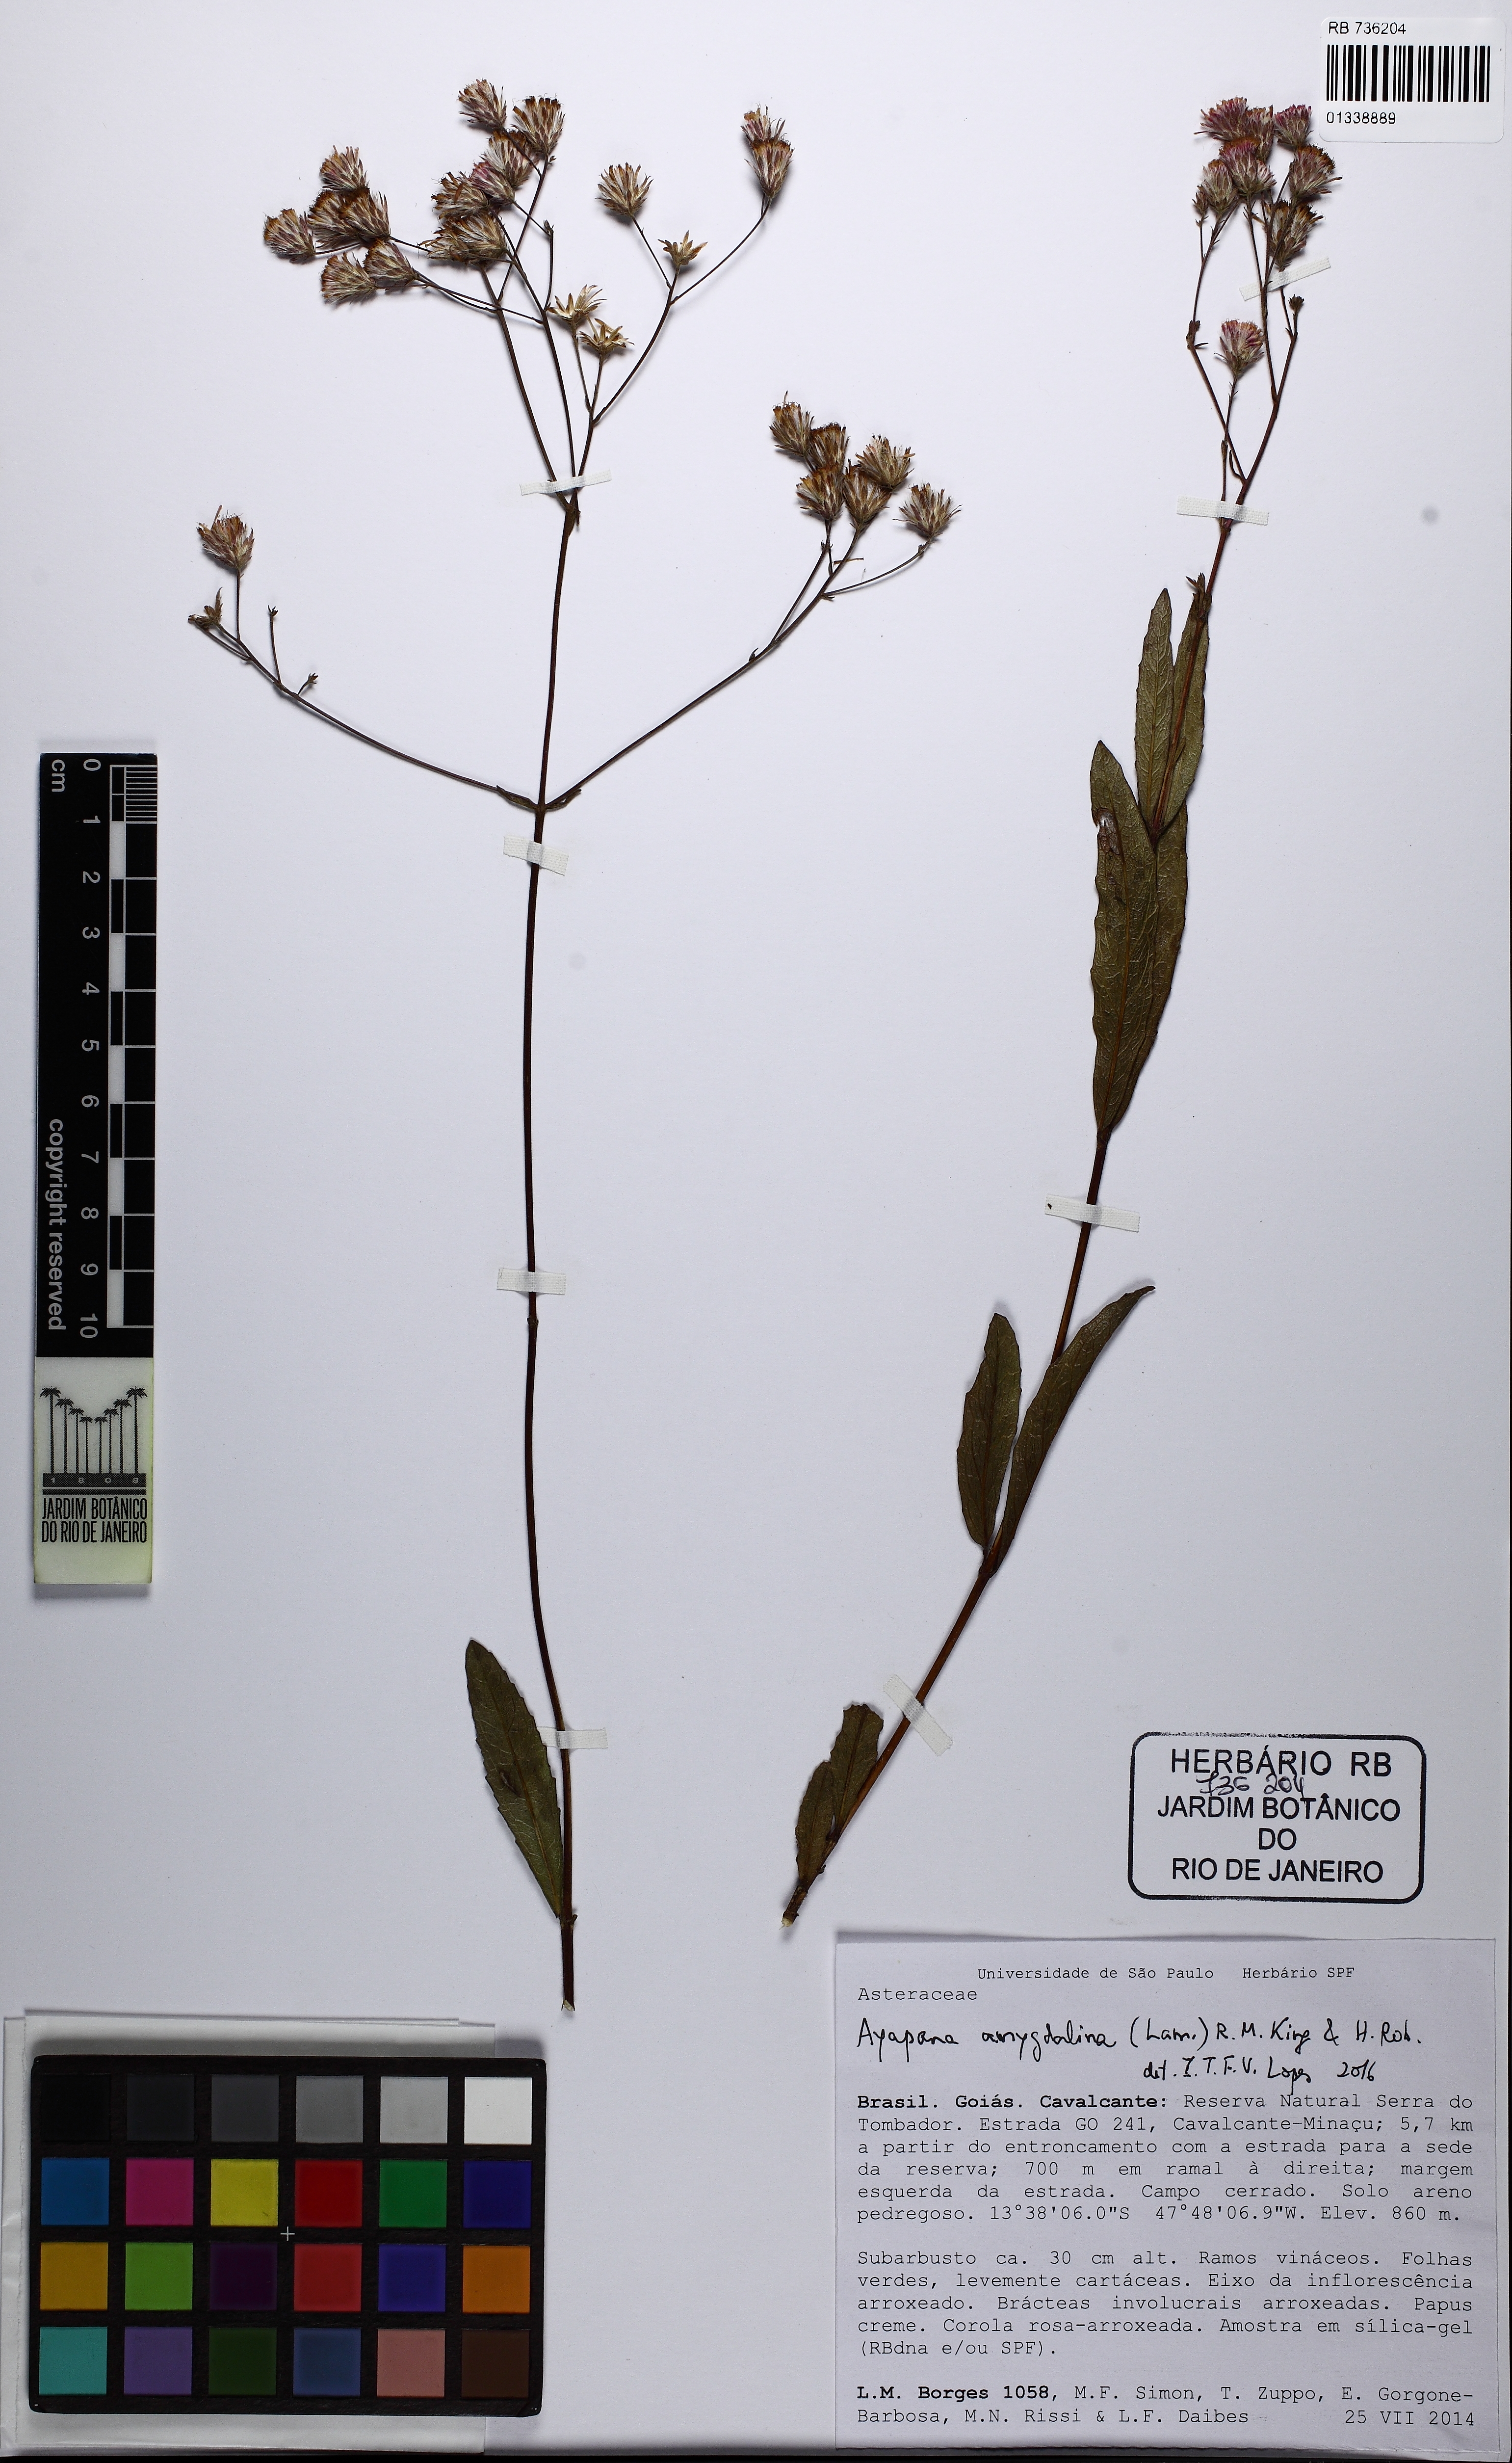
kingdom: Plantae
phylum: Tracheophyta
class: Magnoliopsida
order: Asterales
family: Asteraceae
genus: Ayapana
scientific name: Ayapana amygdalina
